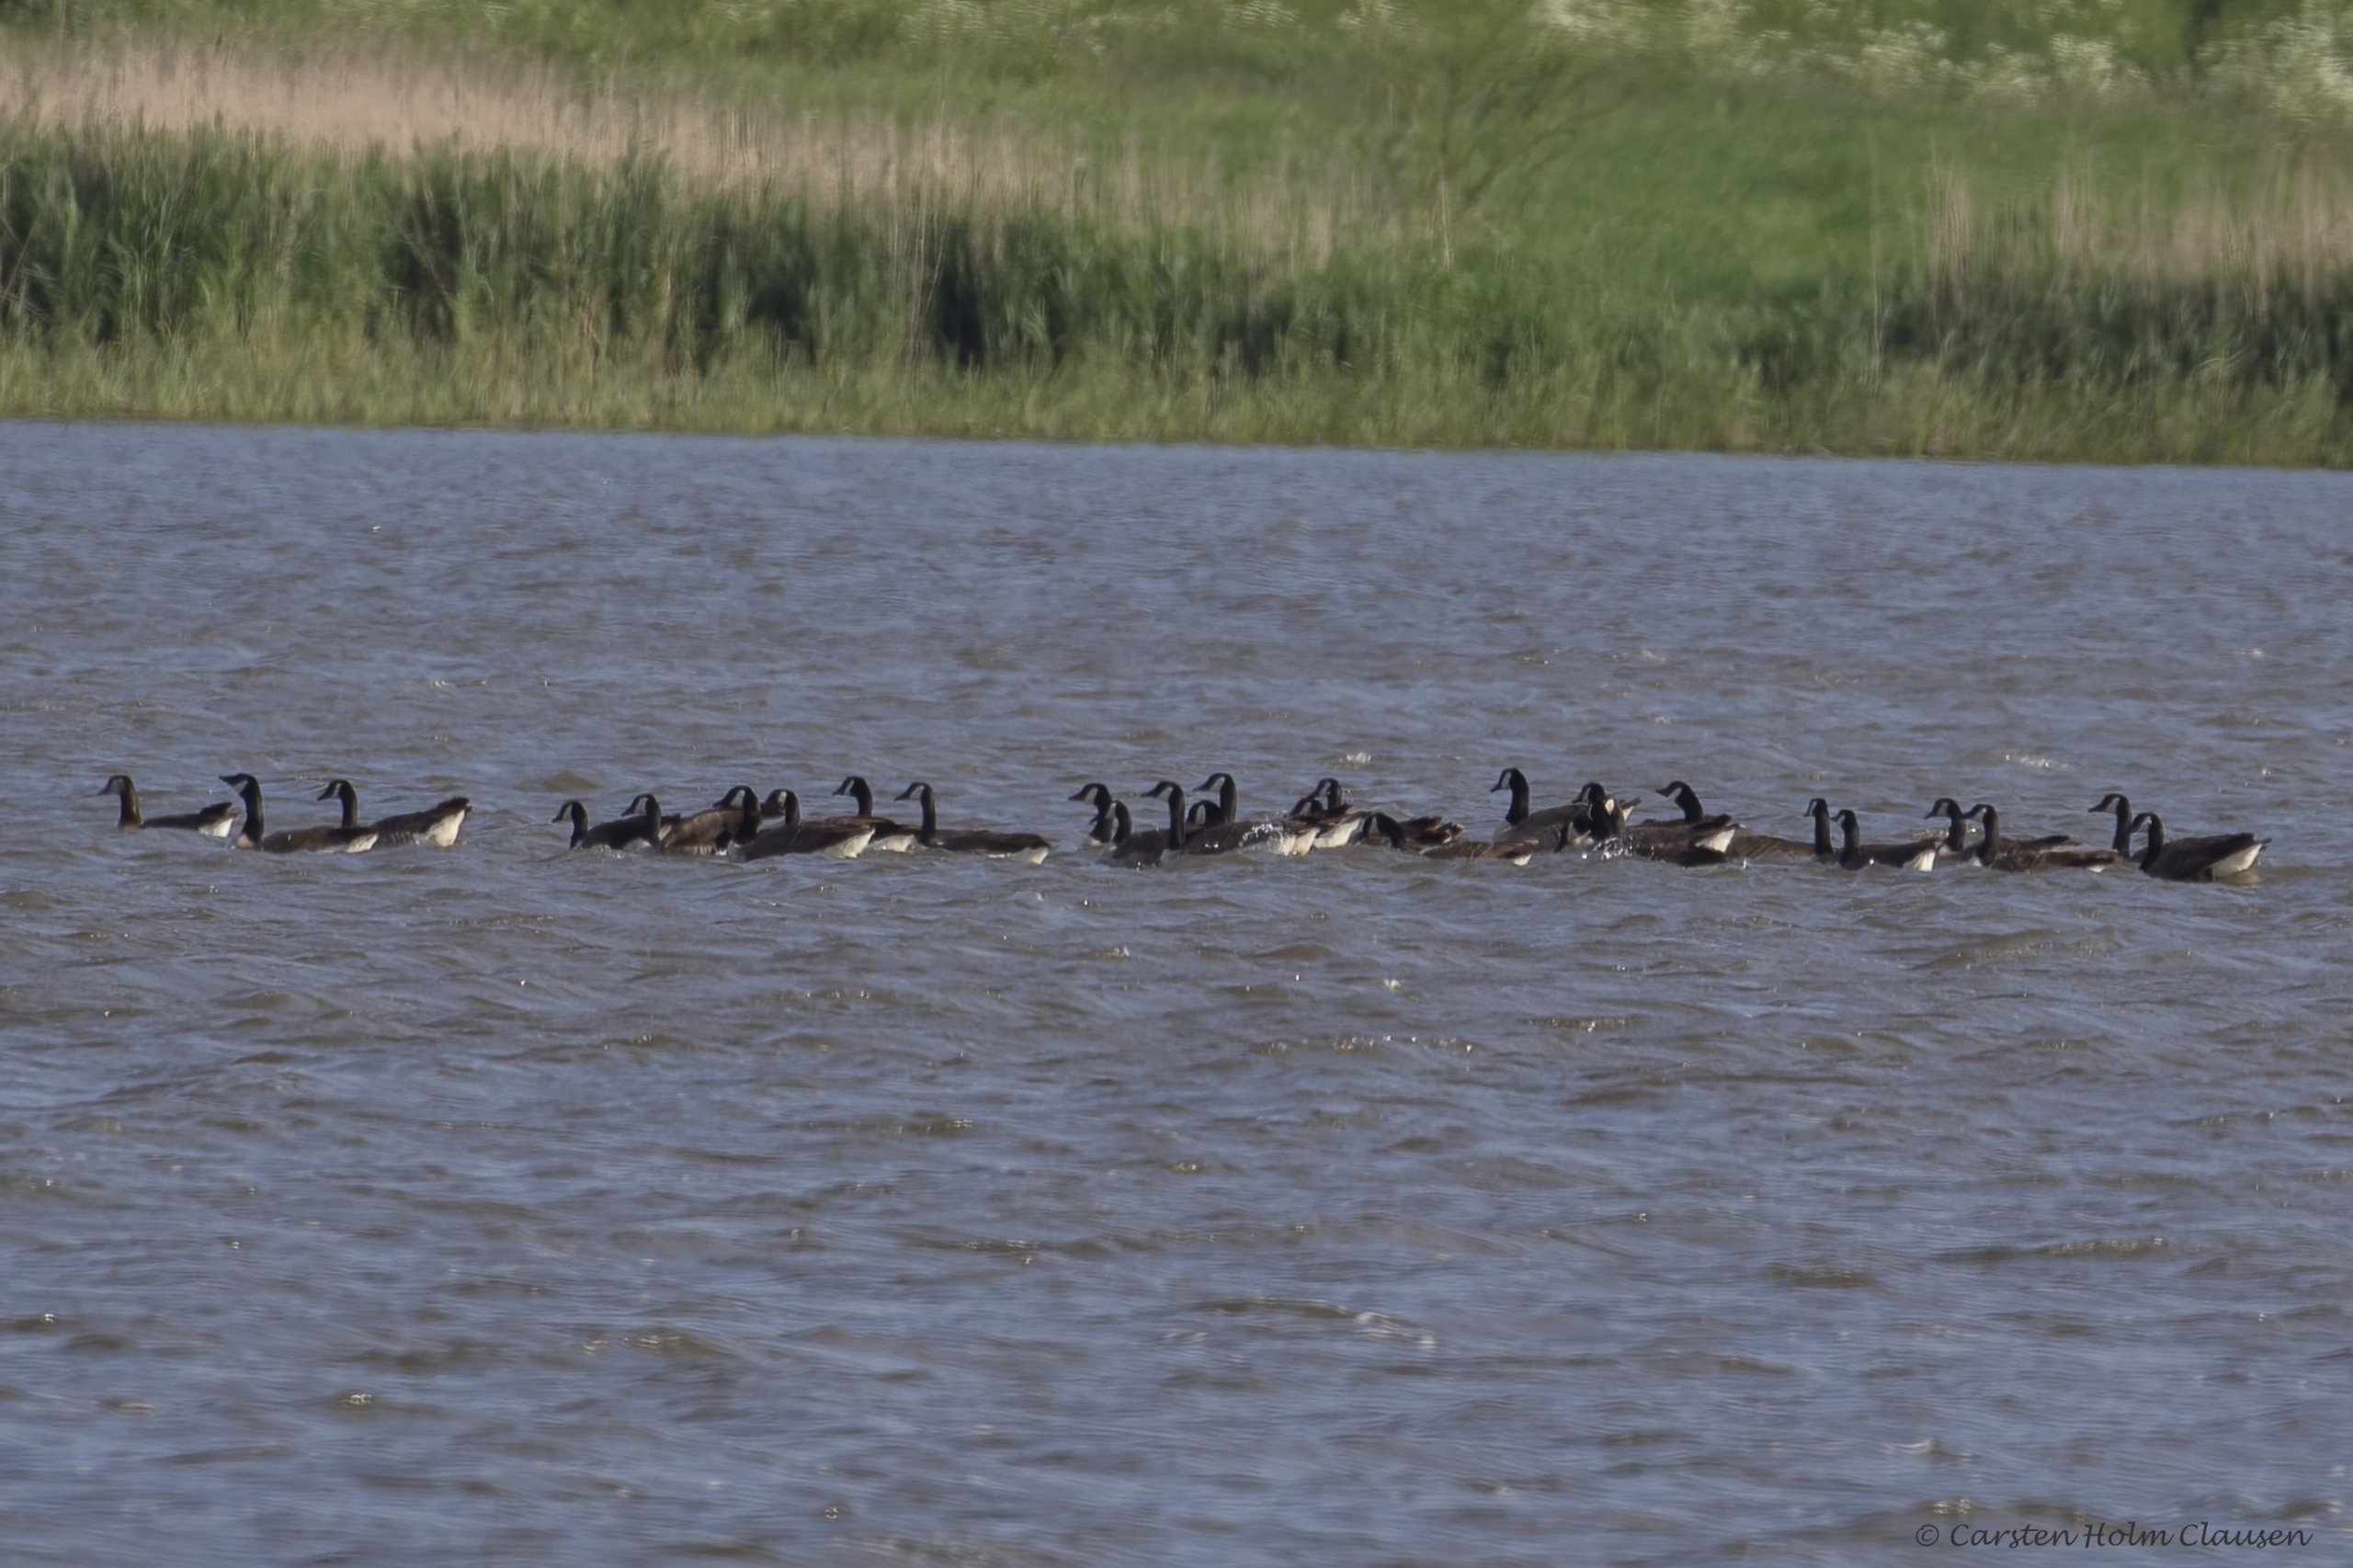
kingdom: Animalia
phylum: Chordata
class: Aves
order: Anseriformes
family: Anatidae
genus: Branta
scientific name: Branta canadensis
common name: Canadagås
